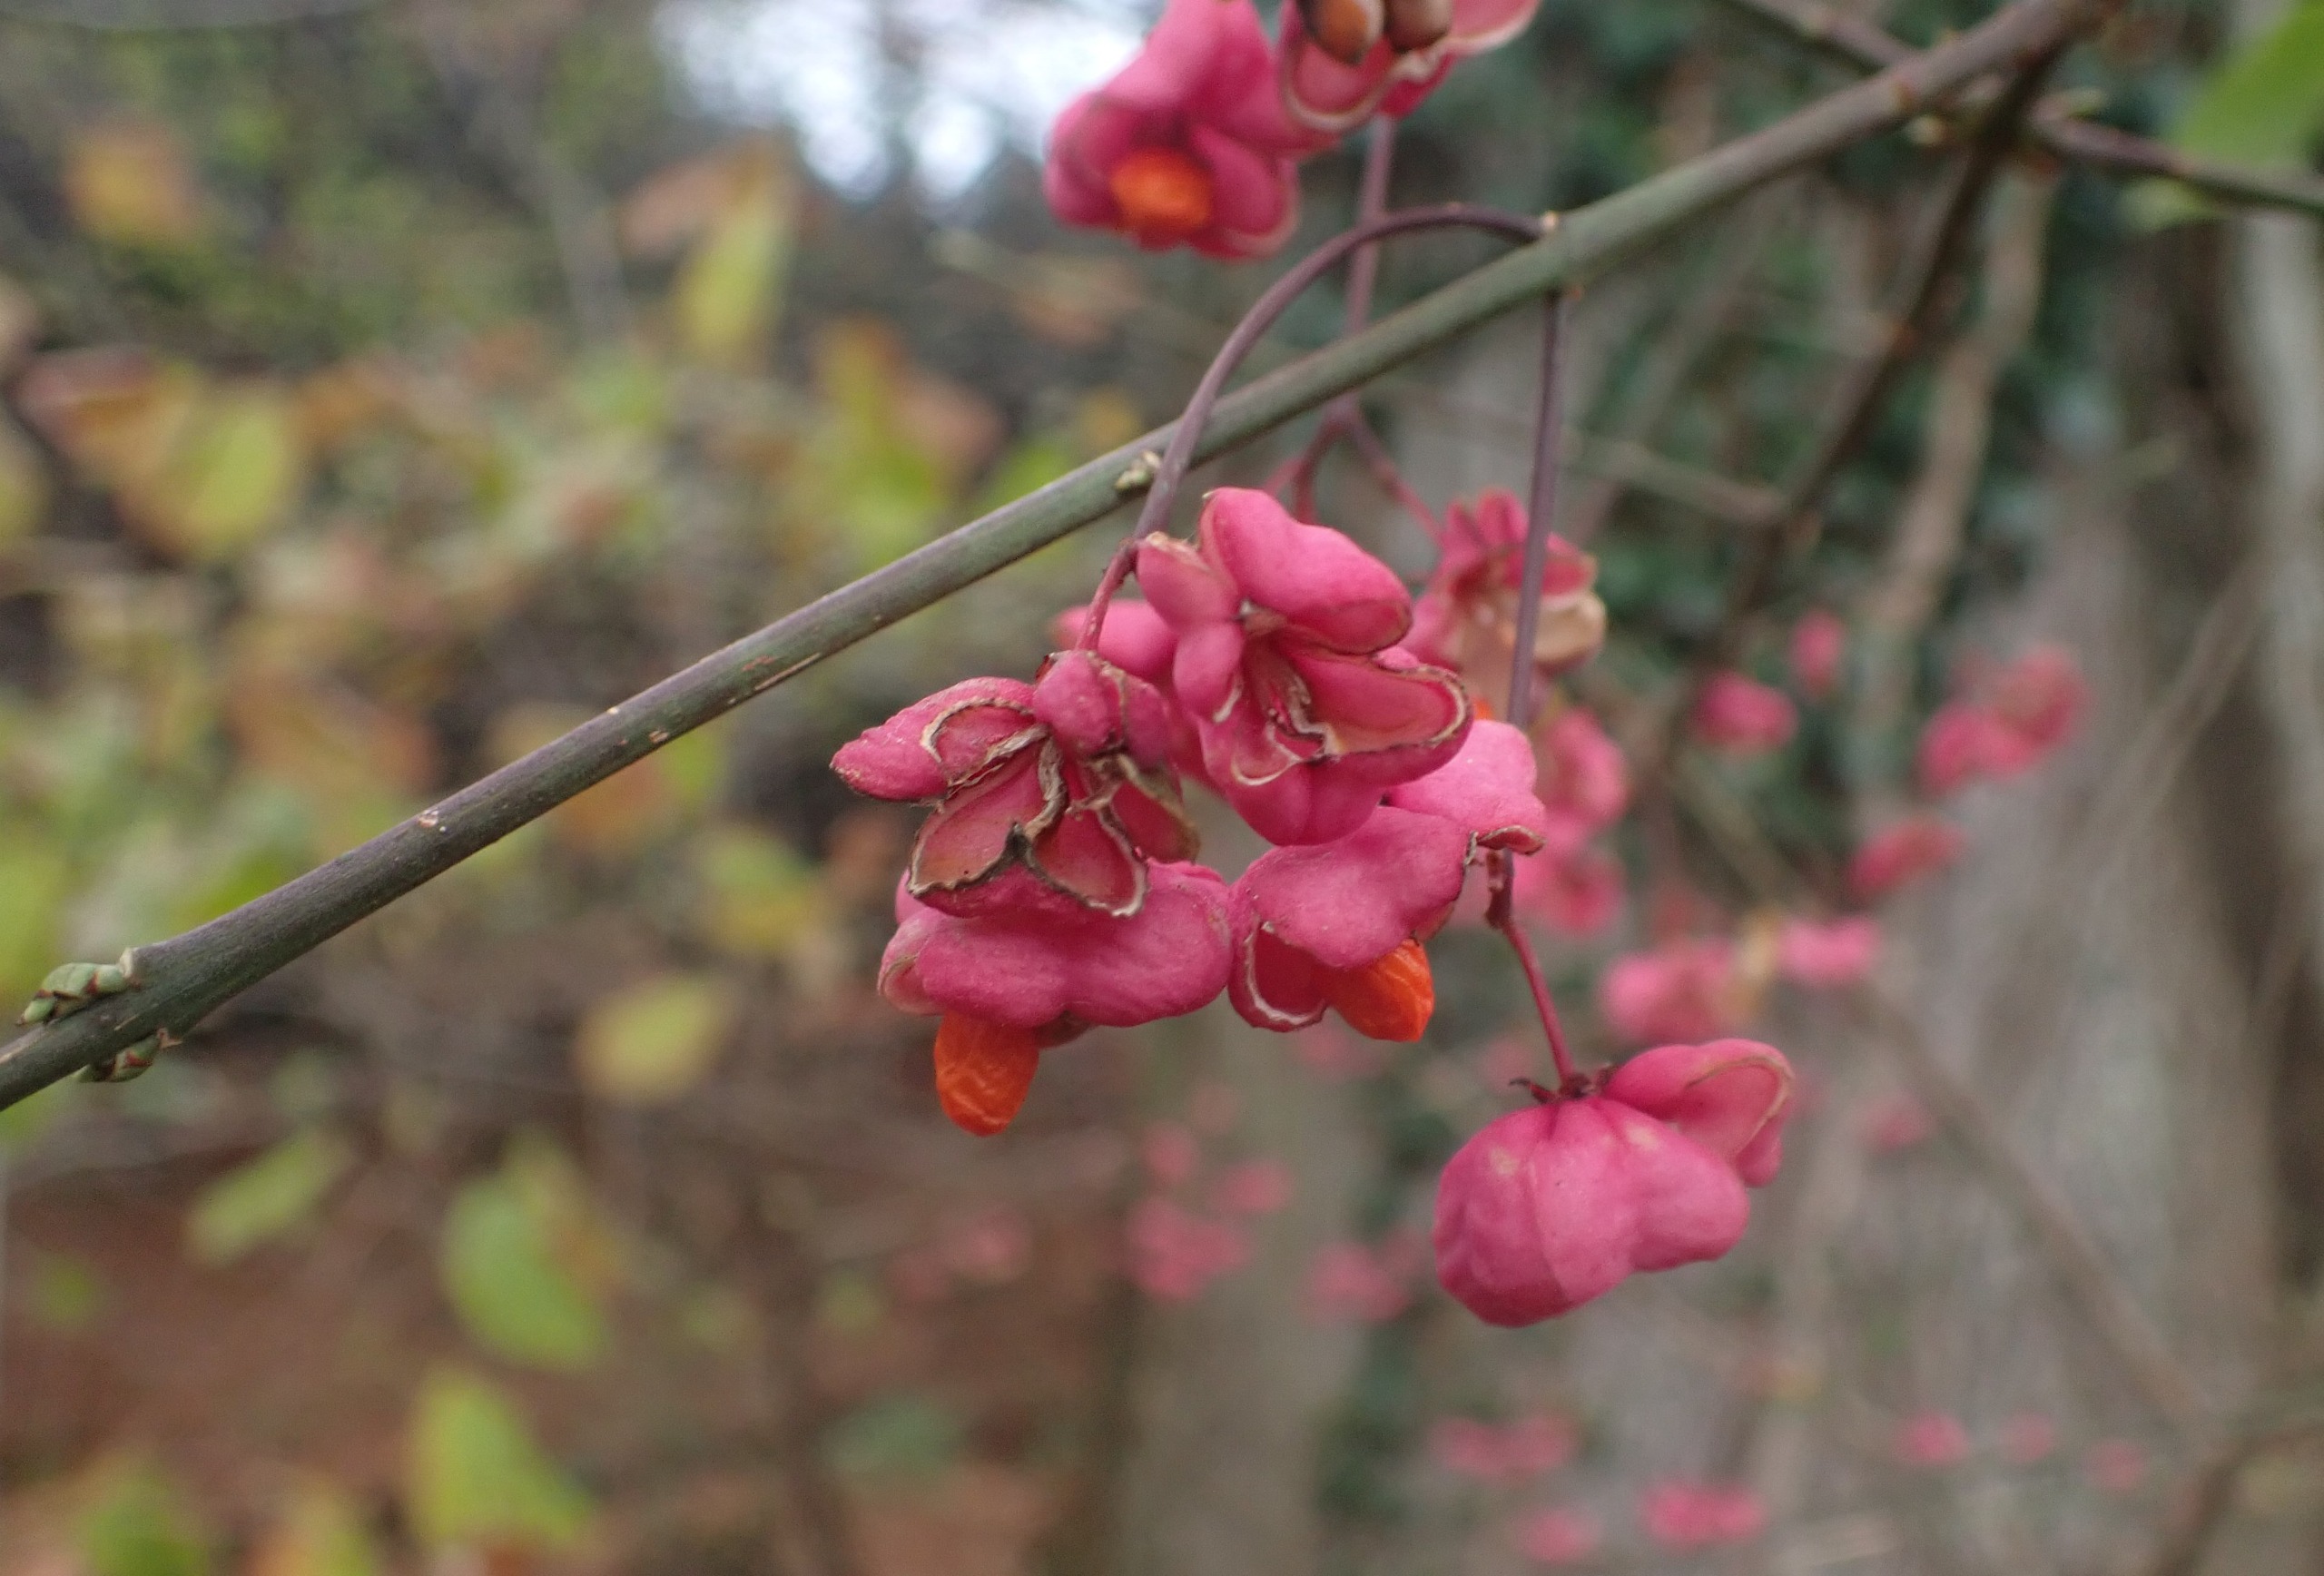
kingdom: Plantae
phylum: Tracheophyta
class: Magnoliopsida
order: Celastrales
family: Celastraceae
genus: Euonymus
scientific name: Euonymus europaeus
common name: Benved
